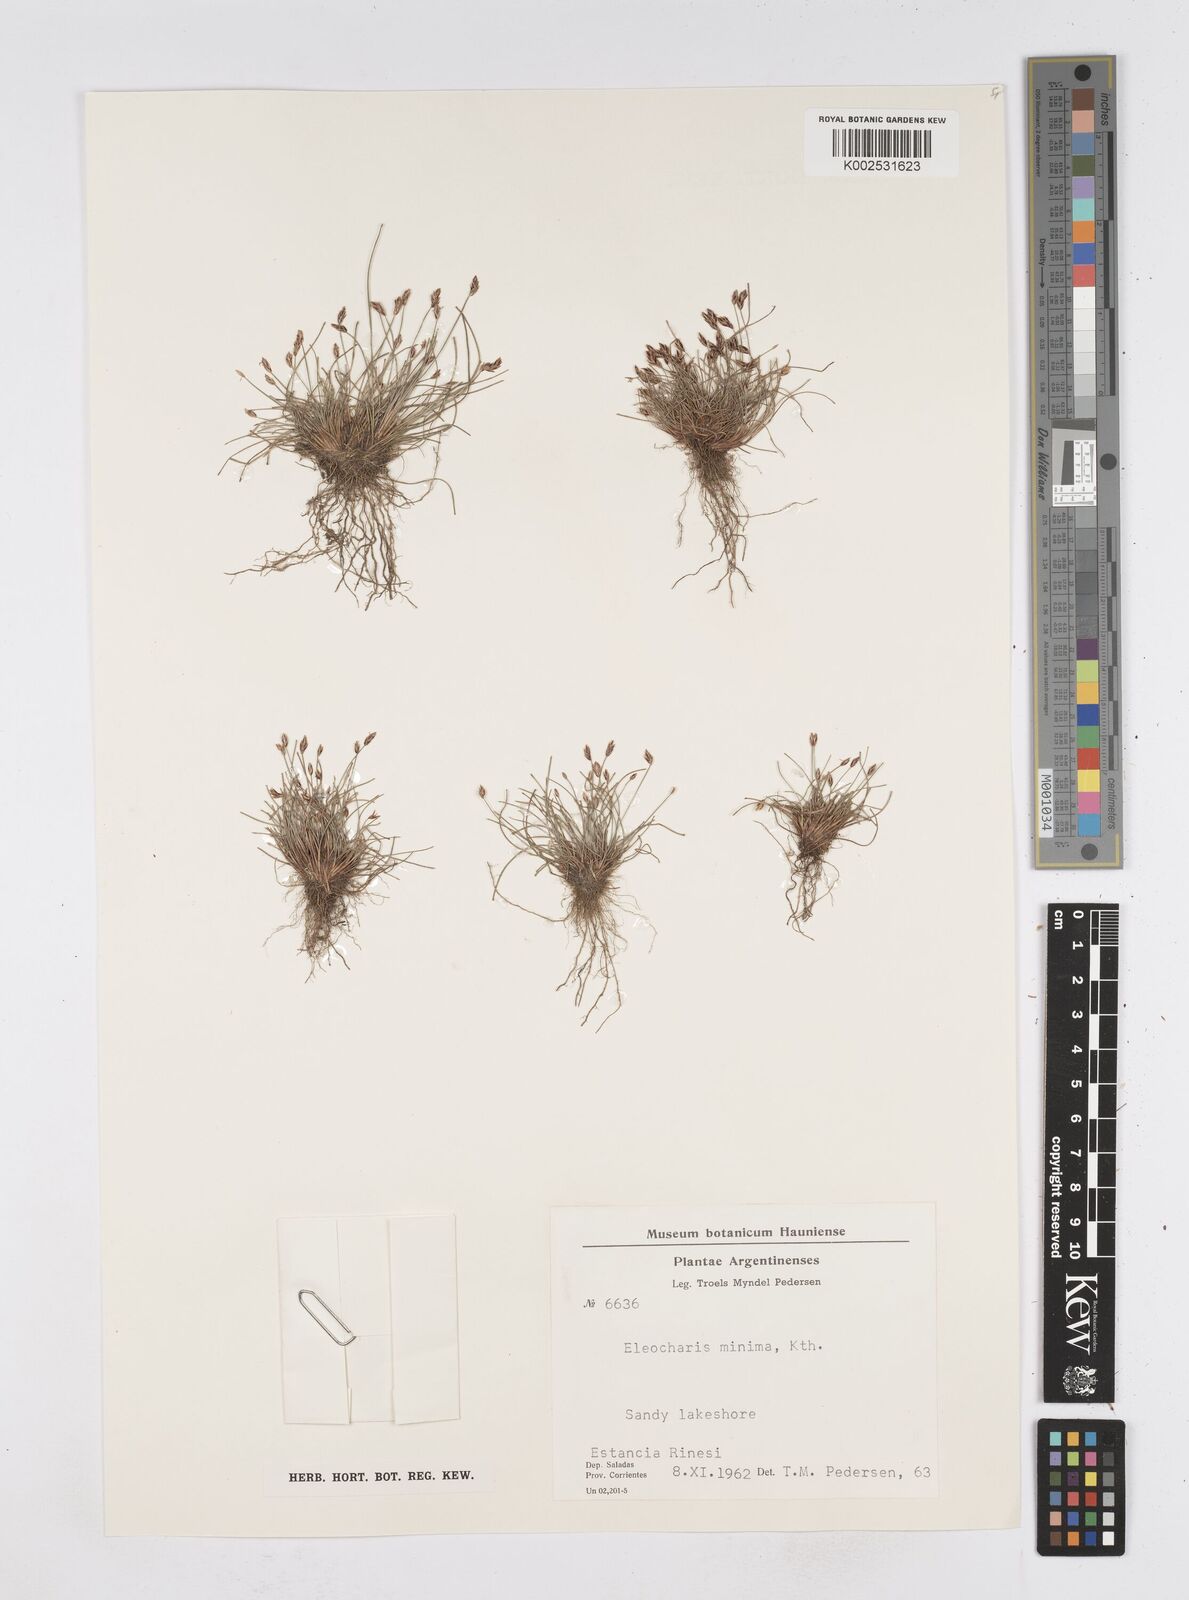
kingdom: Plantae
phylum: Tracheophyta
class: Liliopsida
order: Poales
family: Cyperaceae
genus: Eleocharis
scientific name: Eleocharis minima
